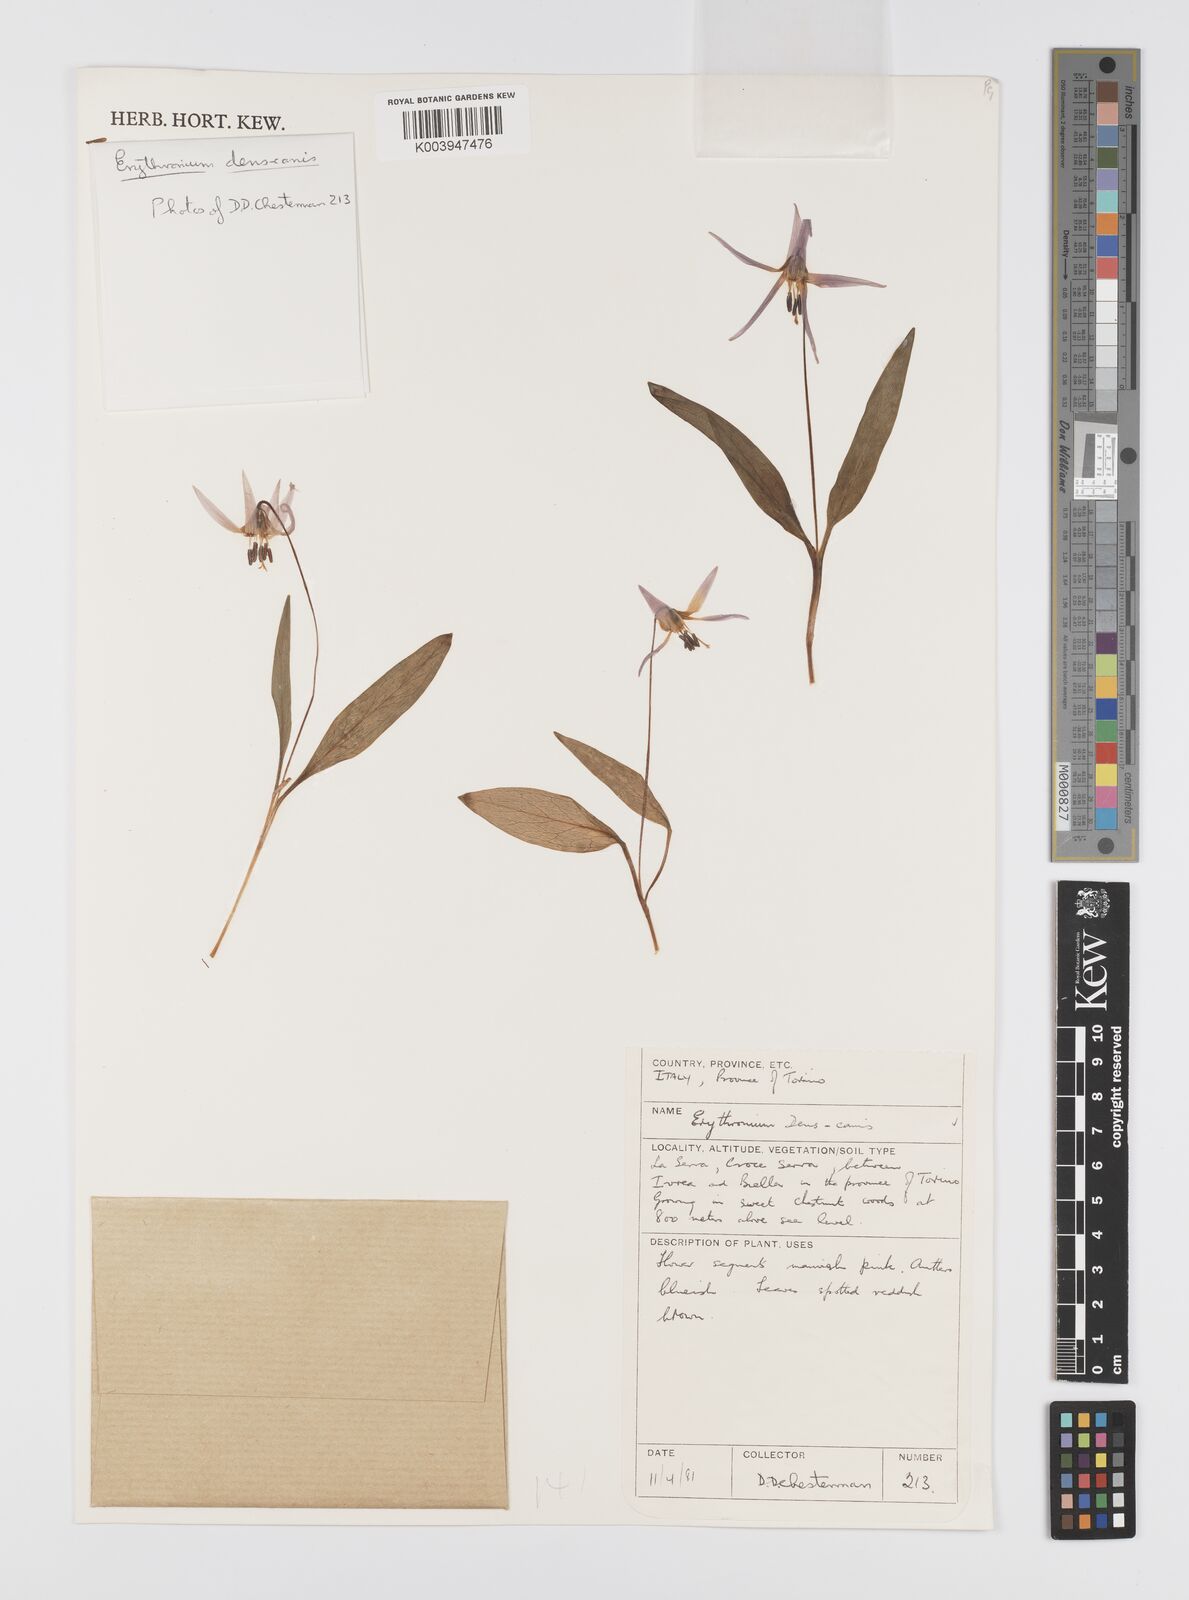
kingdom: Plantae
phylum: Tracheophyta
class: Liliopsida
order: Liliales
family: Liliaceae
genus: Erythronium
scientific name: Erythronium dens-canis
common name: Dog's-tooth-violet
